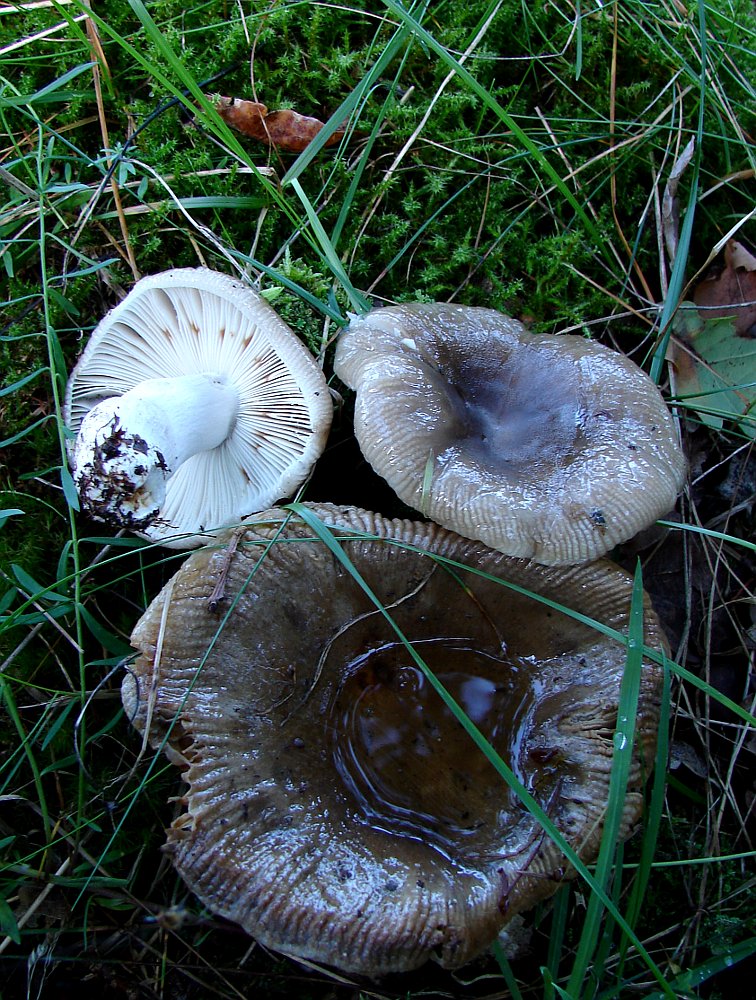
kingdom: Fungi
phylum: Basidiomycota
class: Agaricomycetes
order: Russulales
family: Russulaceae
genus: Russula
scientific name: Russula amoenolens
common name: skarp kam-skørhat
